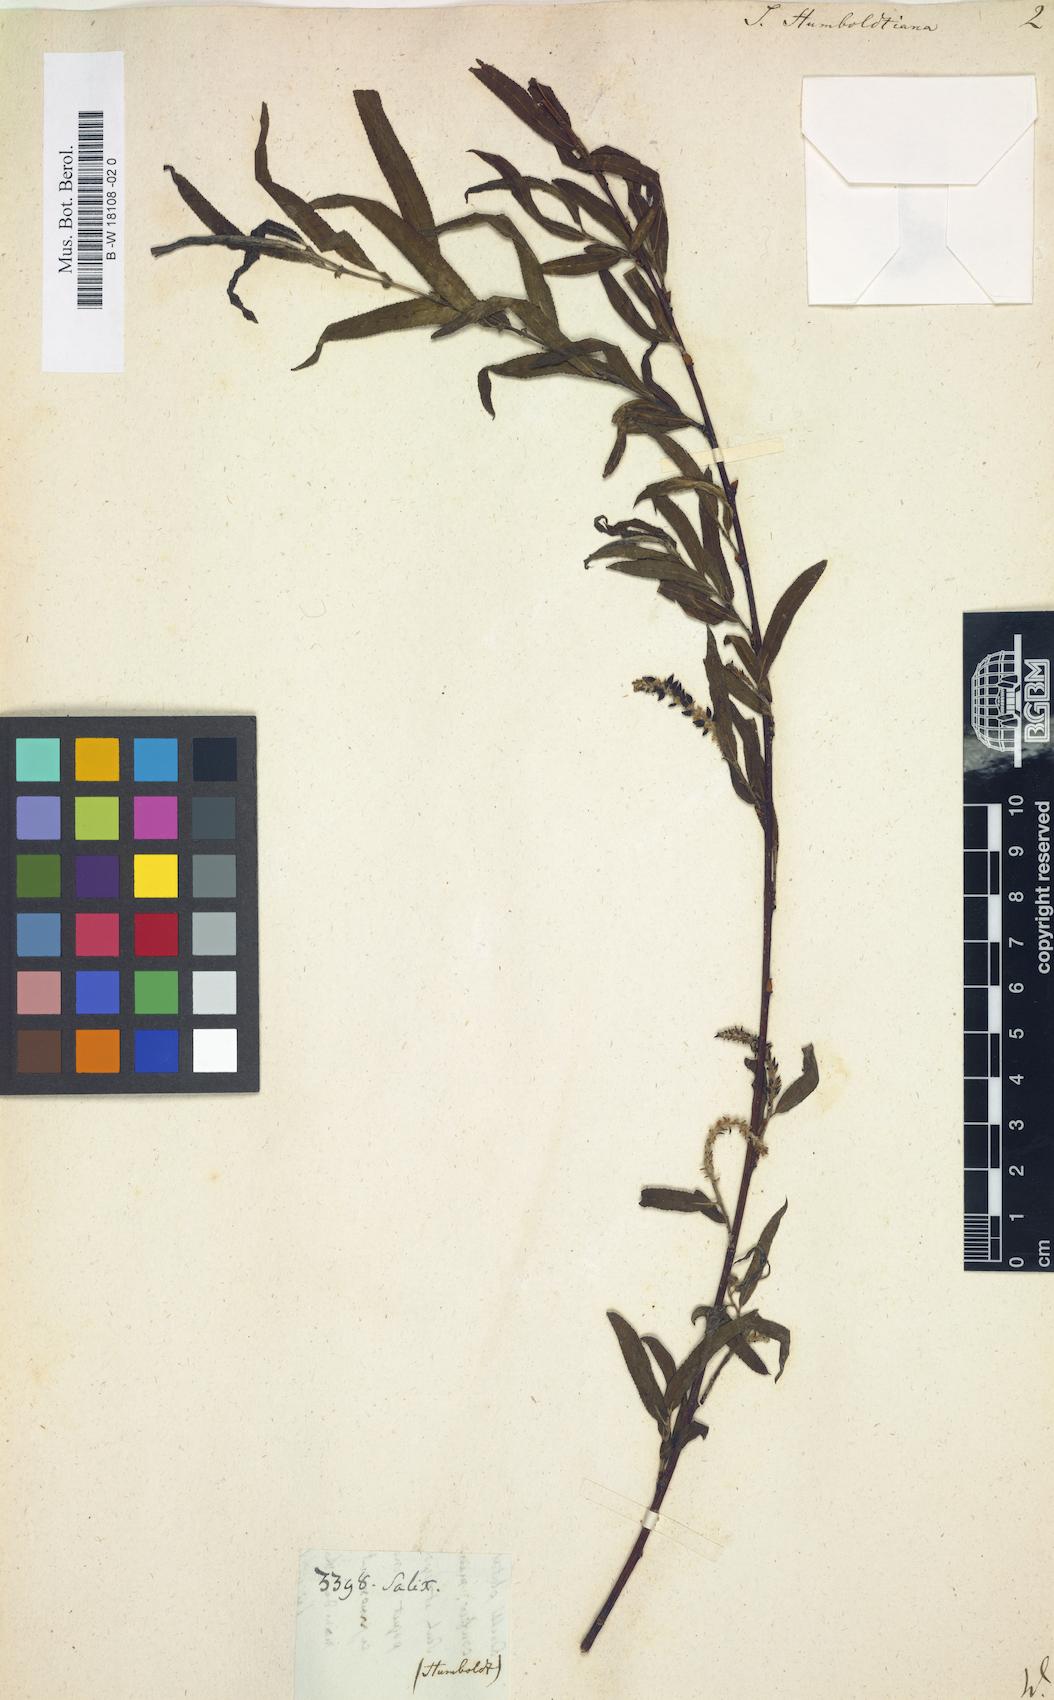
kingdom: Plantae
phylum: Tracheophyta
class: Magnoliopsida
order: Malpighiales
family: Salicaceae
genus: Salix
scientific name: Salix humboldtiana
